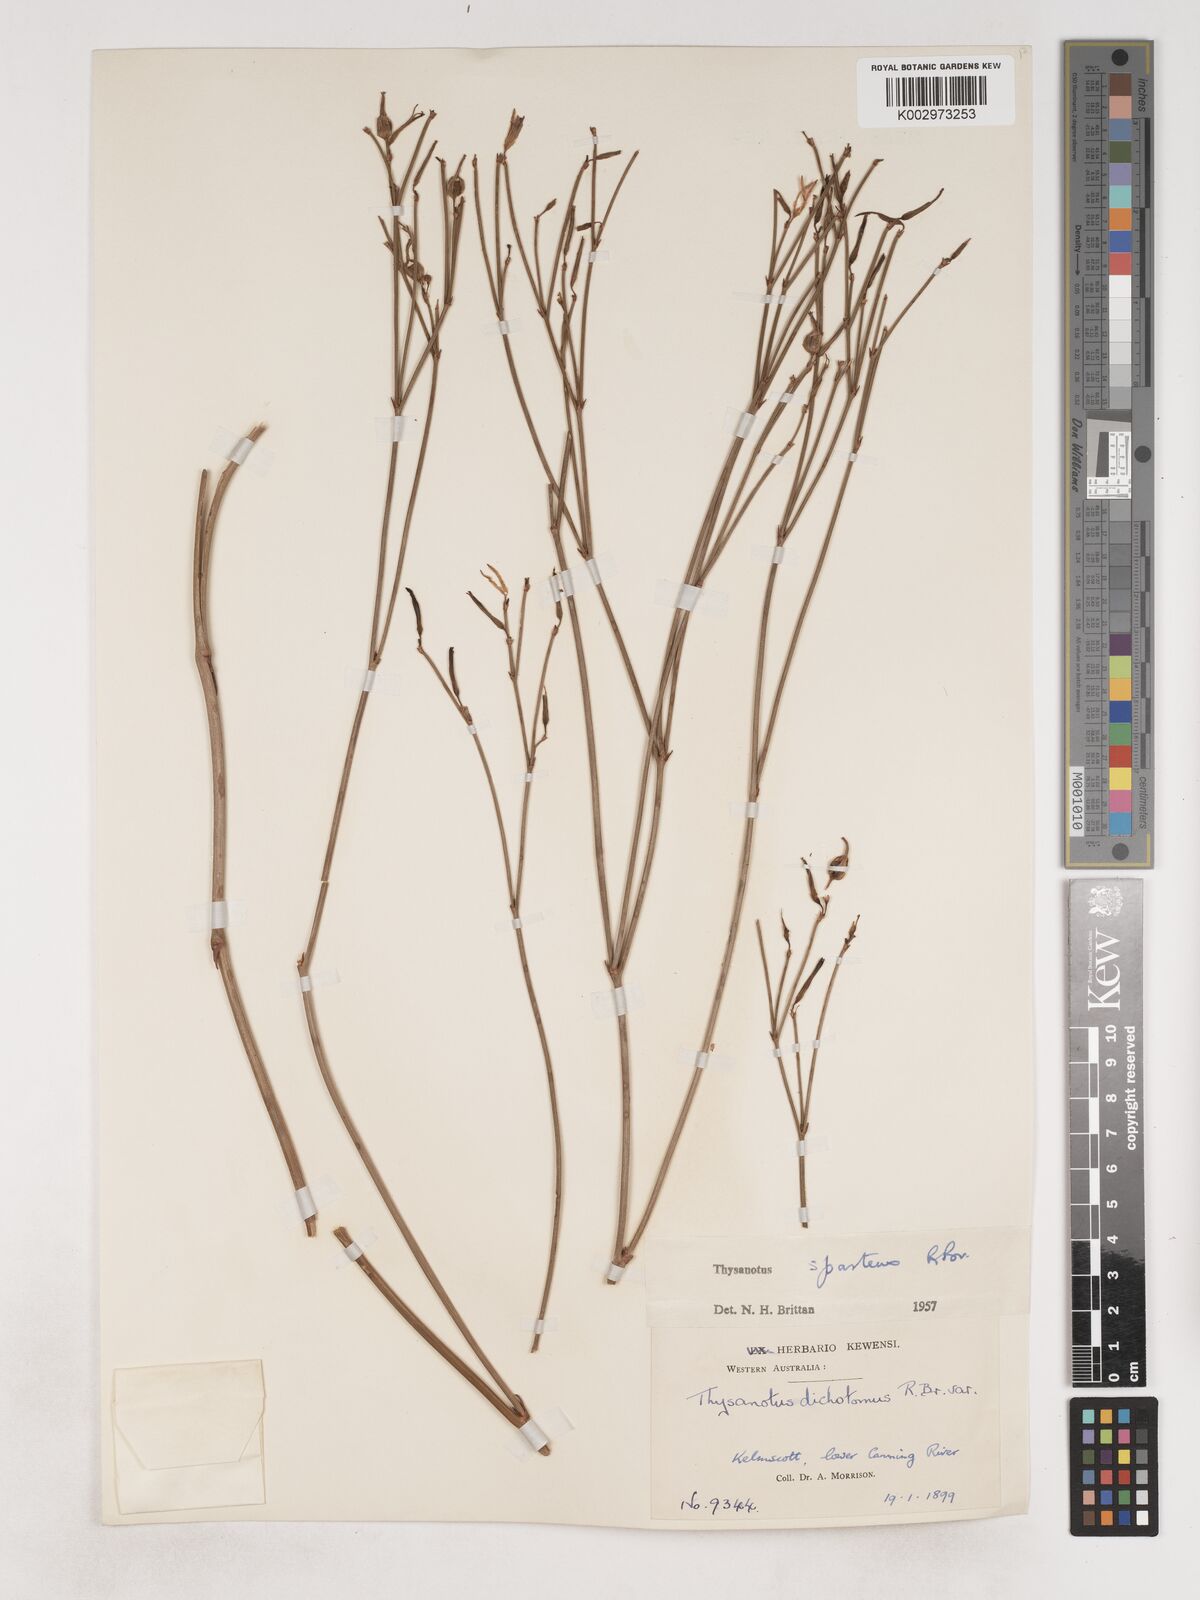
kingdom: Plantae
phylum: Tracheophyta
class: Liliopsida
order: Asparagales
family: Asparagaceae
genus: Thysanotus
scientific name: Thysanotus sparteus
